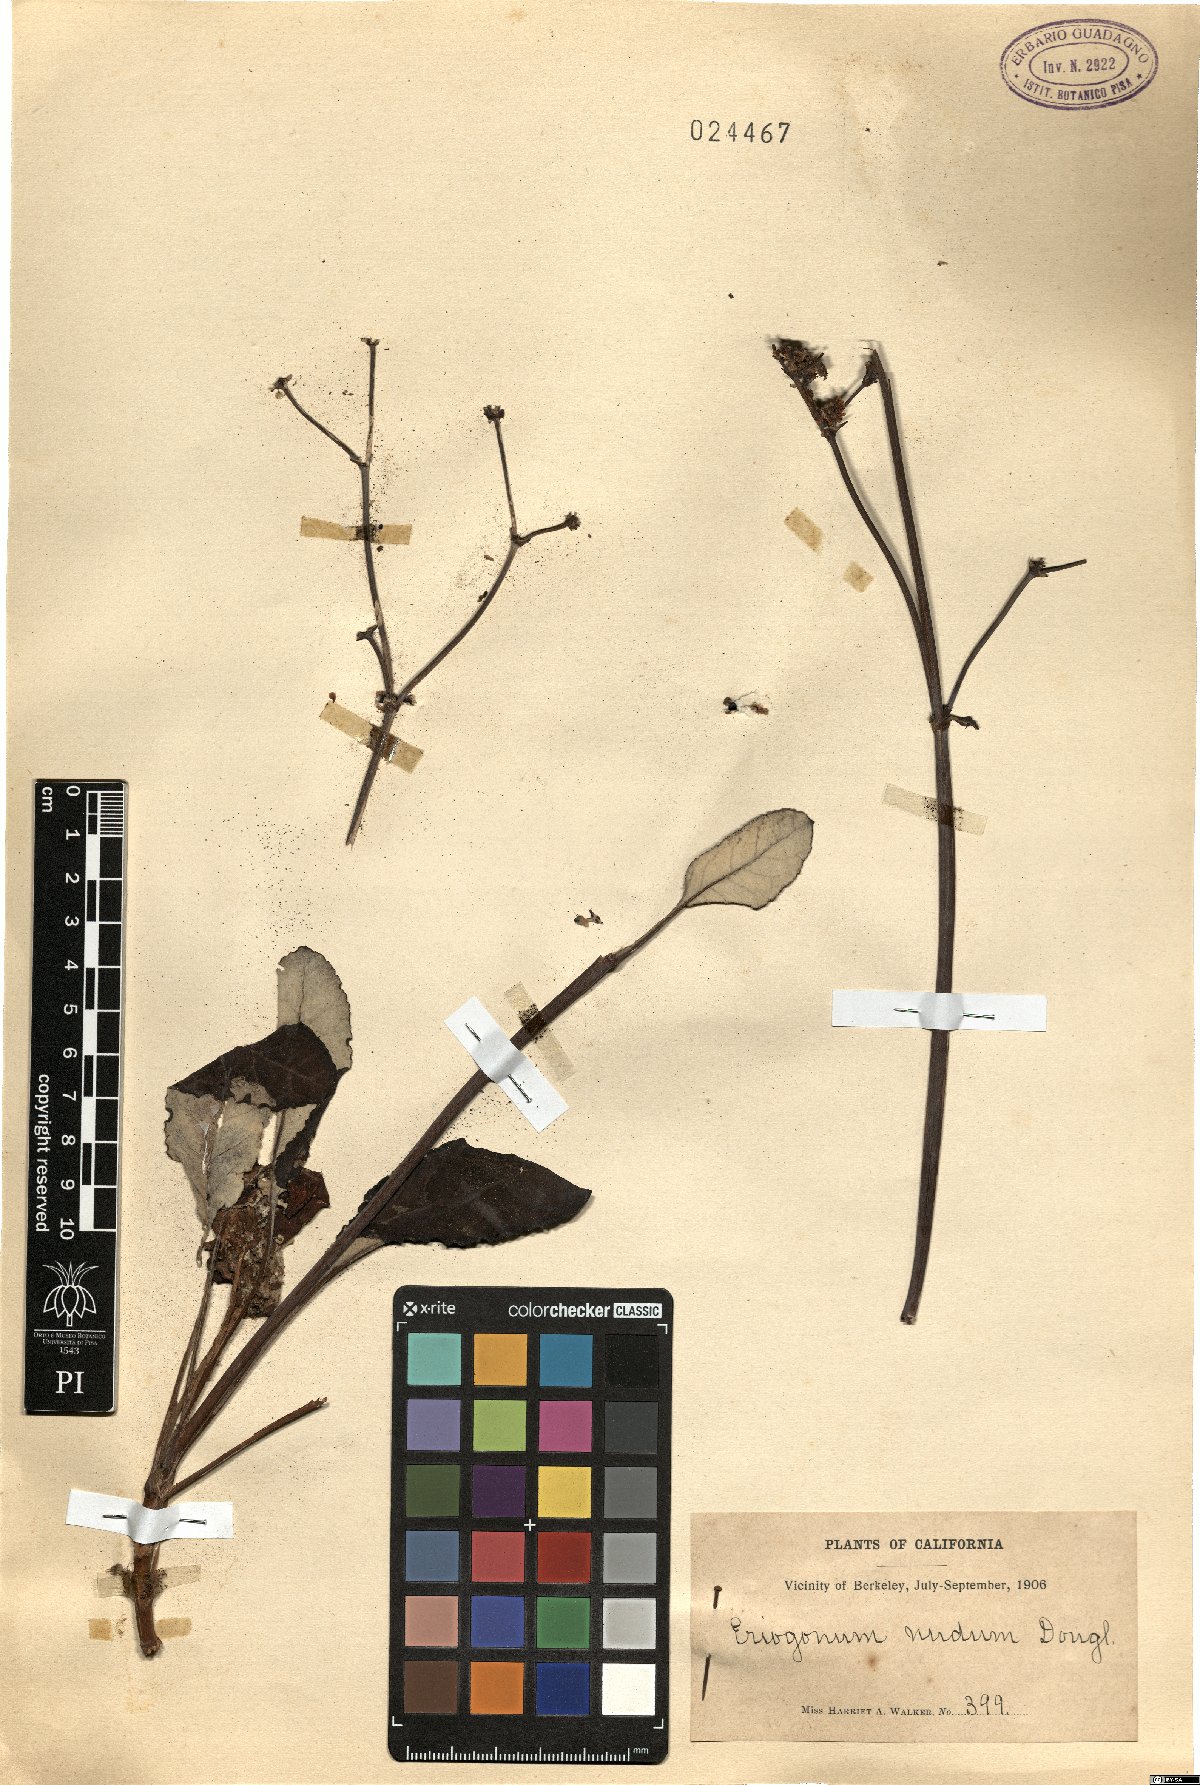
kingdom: Plantae
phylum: Tracheophyta
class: Magnoliopsida
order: Caryophyllales
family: Polygonaceae
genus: Eriogonum
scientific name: Eriogonum nudum
